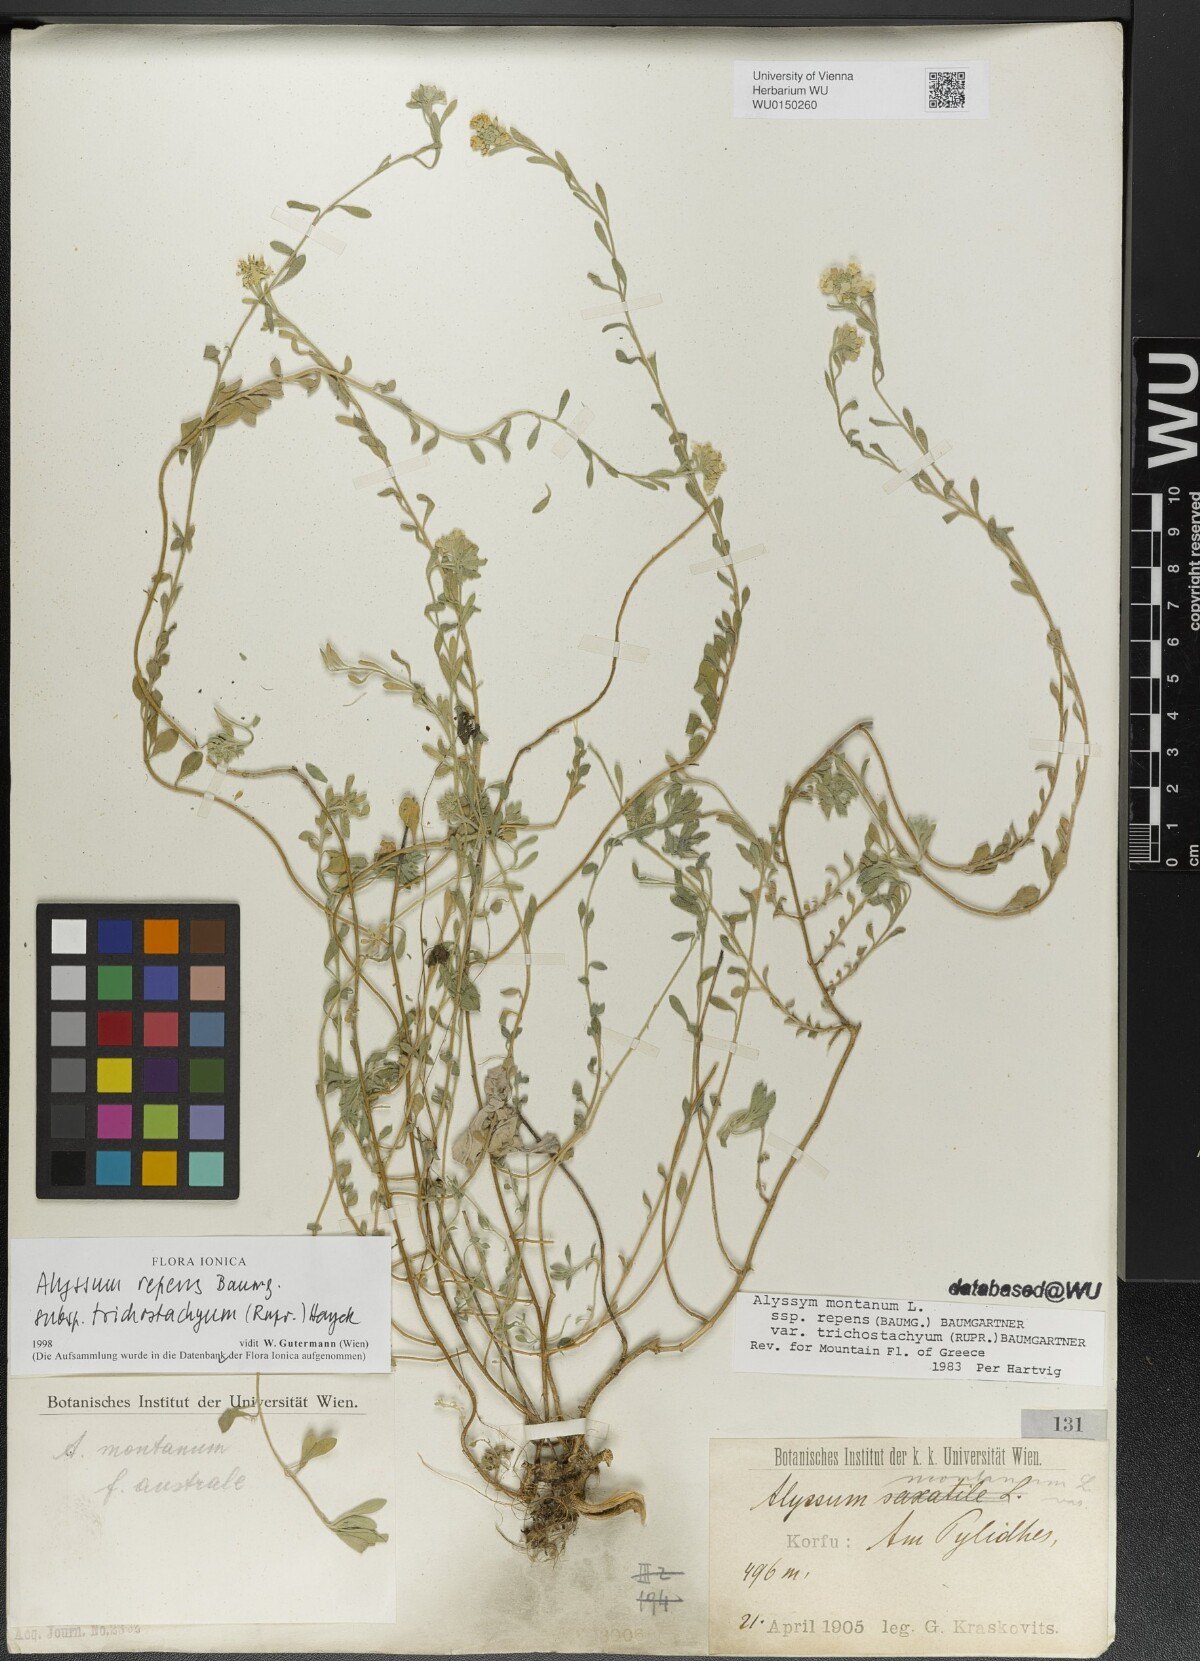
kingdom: Plantae
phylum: Tracheophyta
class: Magnoliopsida
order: Brassicales
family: Brassicaceae
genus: Alyssum
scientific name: Alyssum trichostachyum
